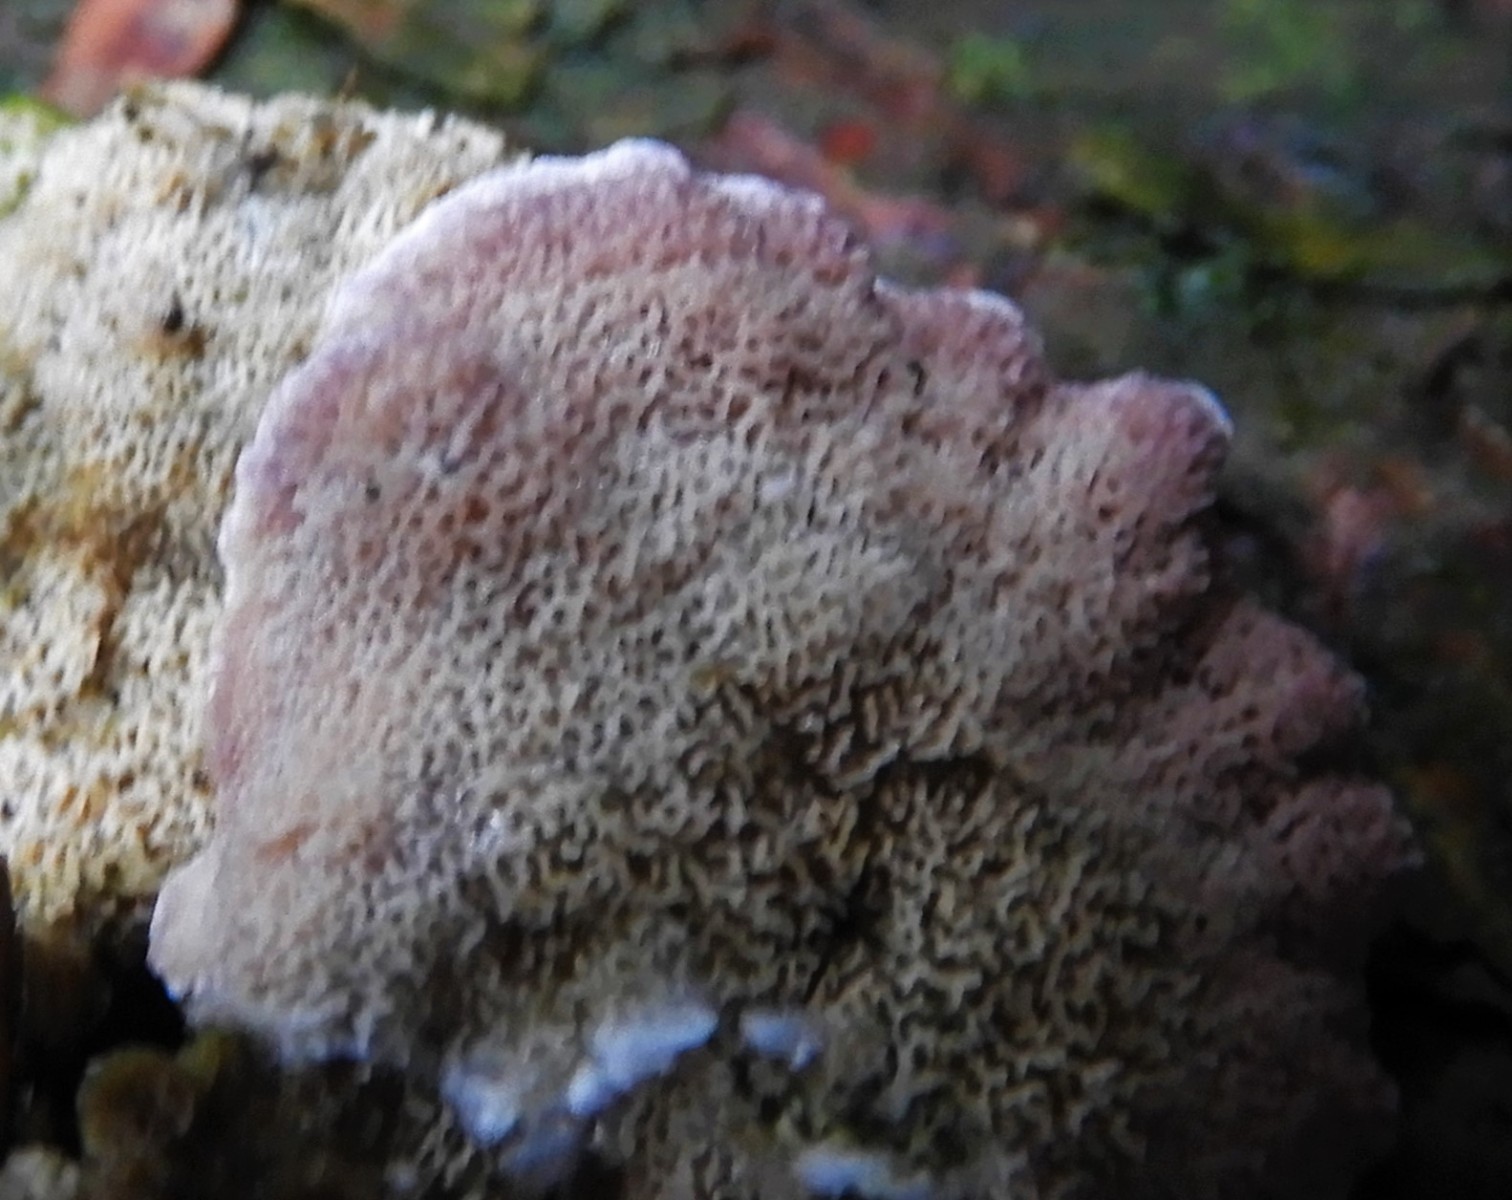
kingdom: Fungi
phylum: Basidiomycota
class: Agaricomycetes
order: Hymenochaetales
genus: Trichaptum
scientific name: Trichaptum abietinum
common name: almindelig violporesvamp
